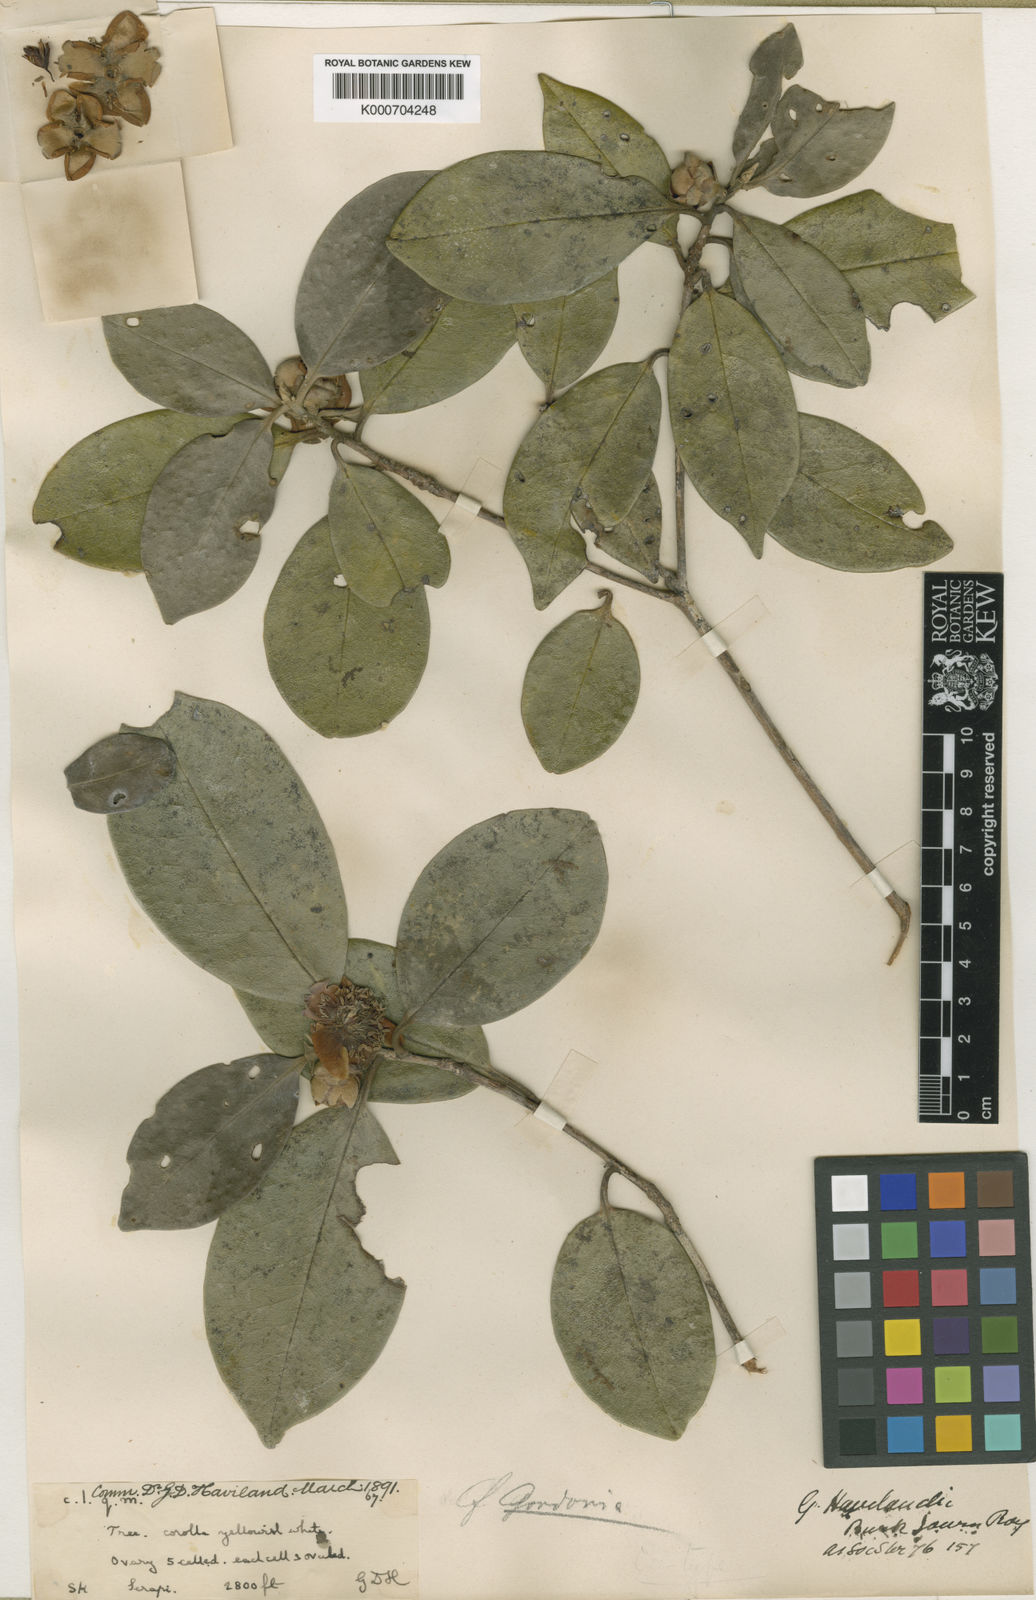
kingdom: Plantae
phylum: Tracheophyta
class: Magnoliopsida
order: Ericales
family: Theaceae
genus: Polyspora
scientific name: Polyspora havilandii
